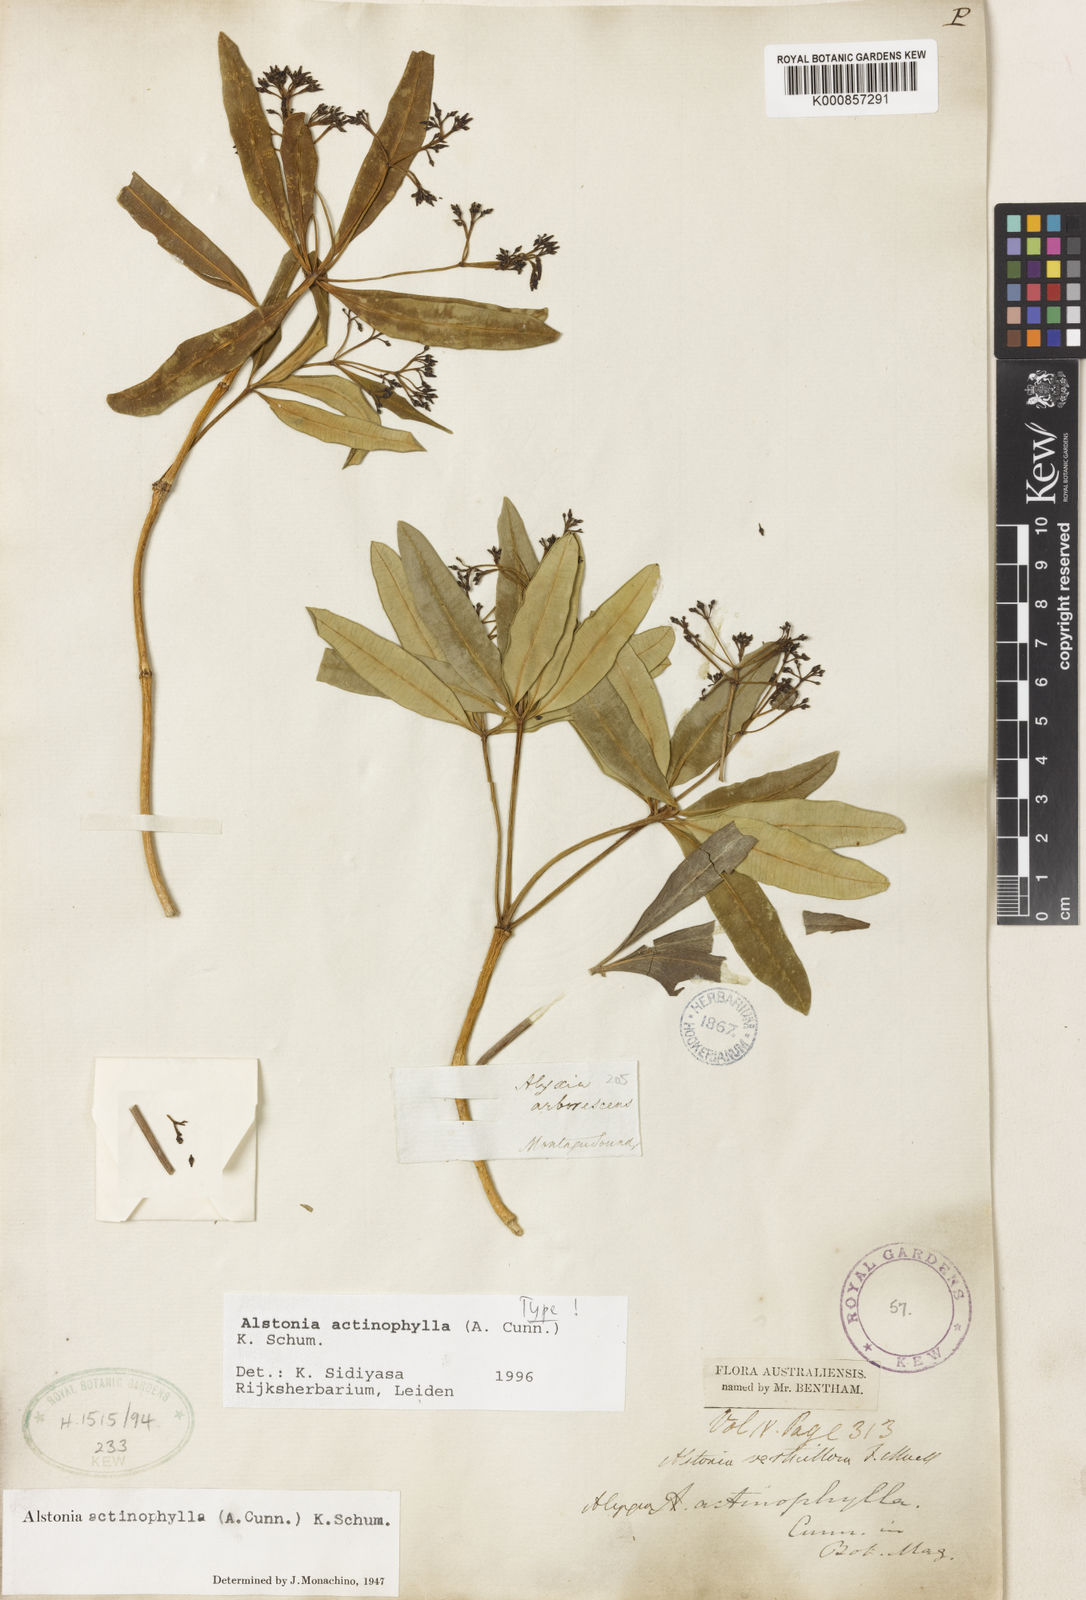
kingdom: Plantae
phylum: Tracheophyta
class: Magnoliopsida
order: Gentianales
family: Apocynaceae
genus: Alstonia
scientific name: Alstonia actinophylla
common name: Milkwood
